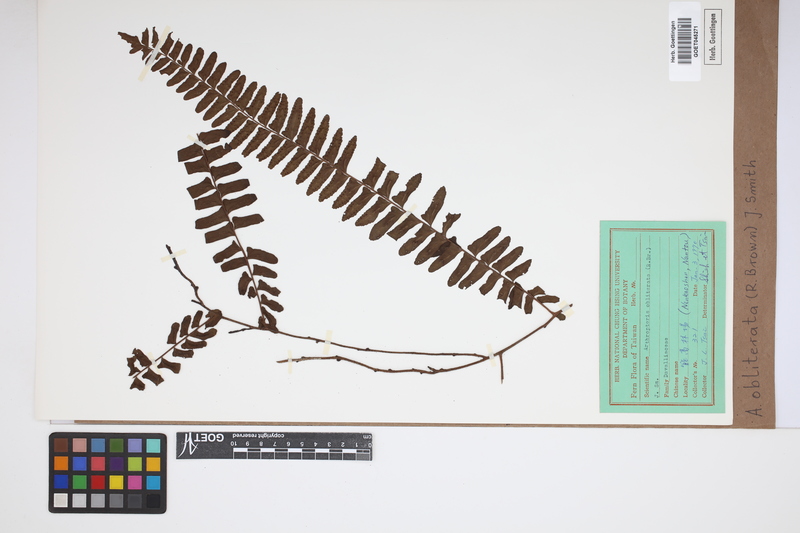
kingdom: Plantae
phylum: Tracheophyta
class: Polypodiopsida
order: Polypodiales
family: Nephrolepidaceae
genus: Nephrolepis
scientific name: Nephrolepis obliterata
